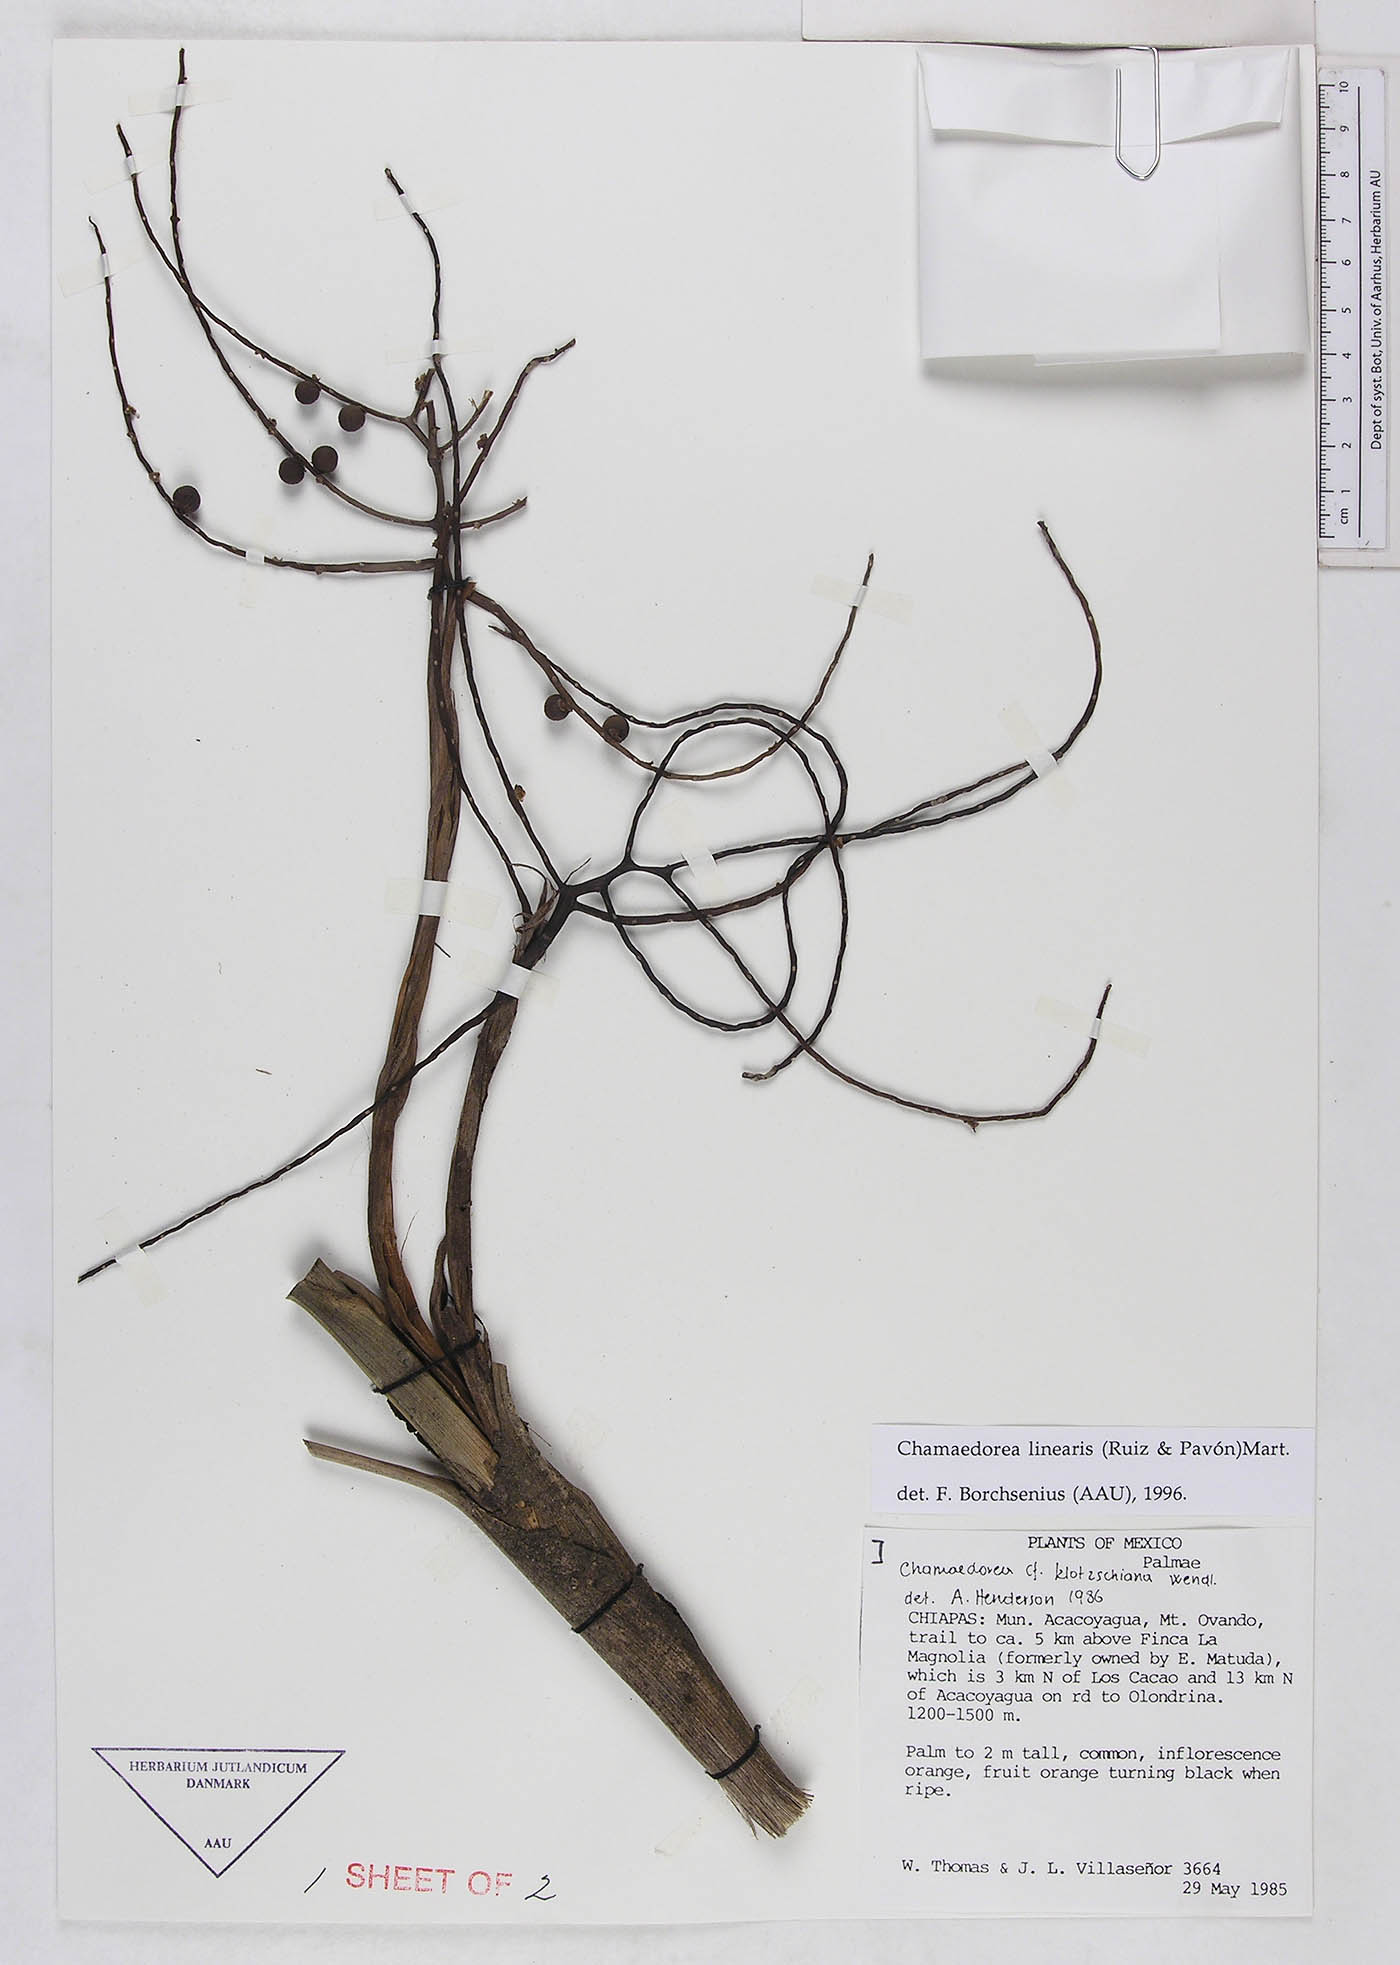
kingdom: Plantae
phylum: Tracheophyta
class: Liliopsida
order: Arecales
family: Arecaceae
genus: Chamaedorea
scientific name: Chamaedorea linearis
